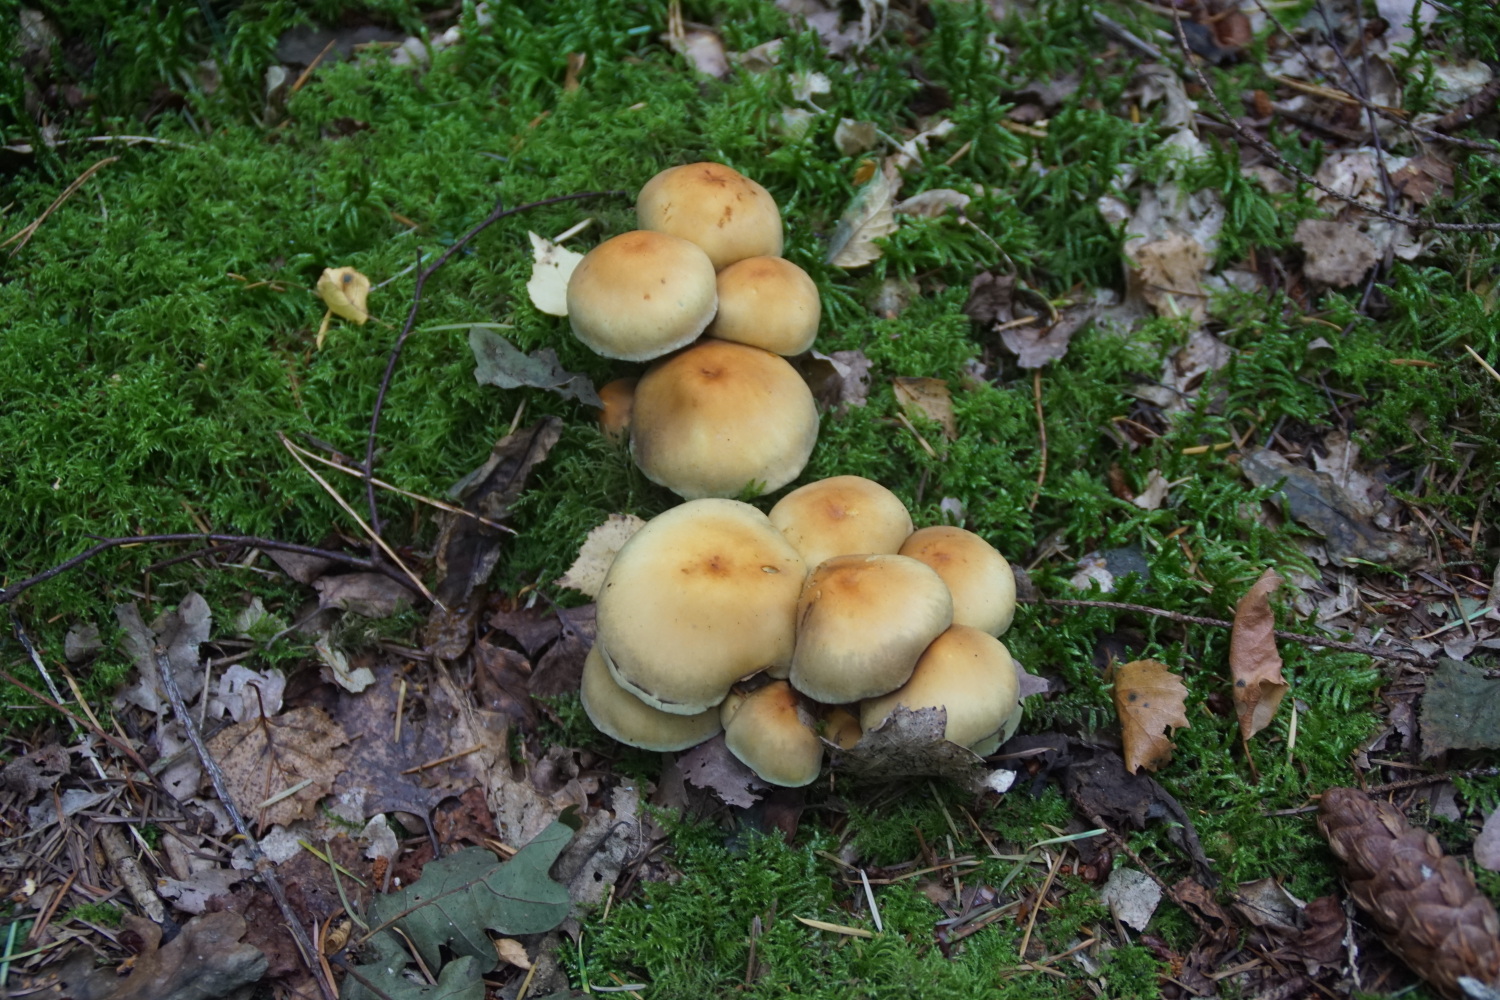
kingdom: Fungi
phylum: Basidiomycota
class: Agaricomycetes
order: Agaricales
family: Strophariaceae
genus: Hypholoma
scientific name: Hypholoma fasciculare
